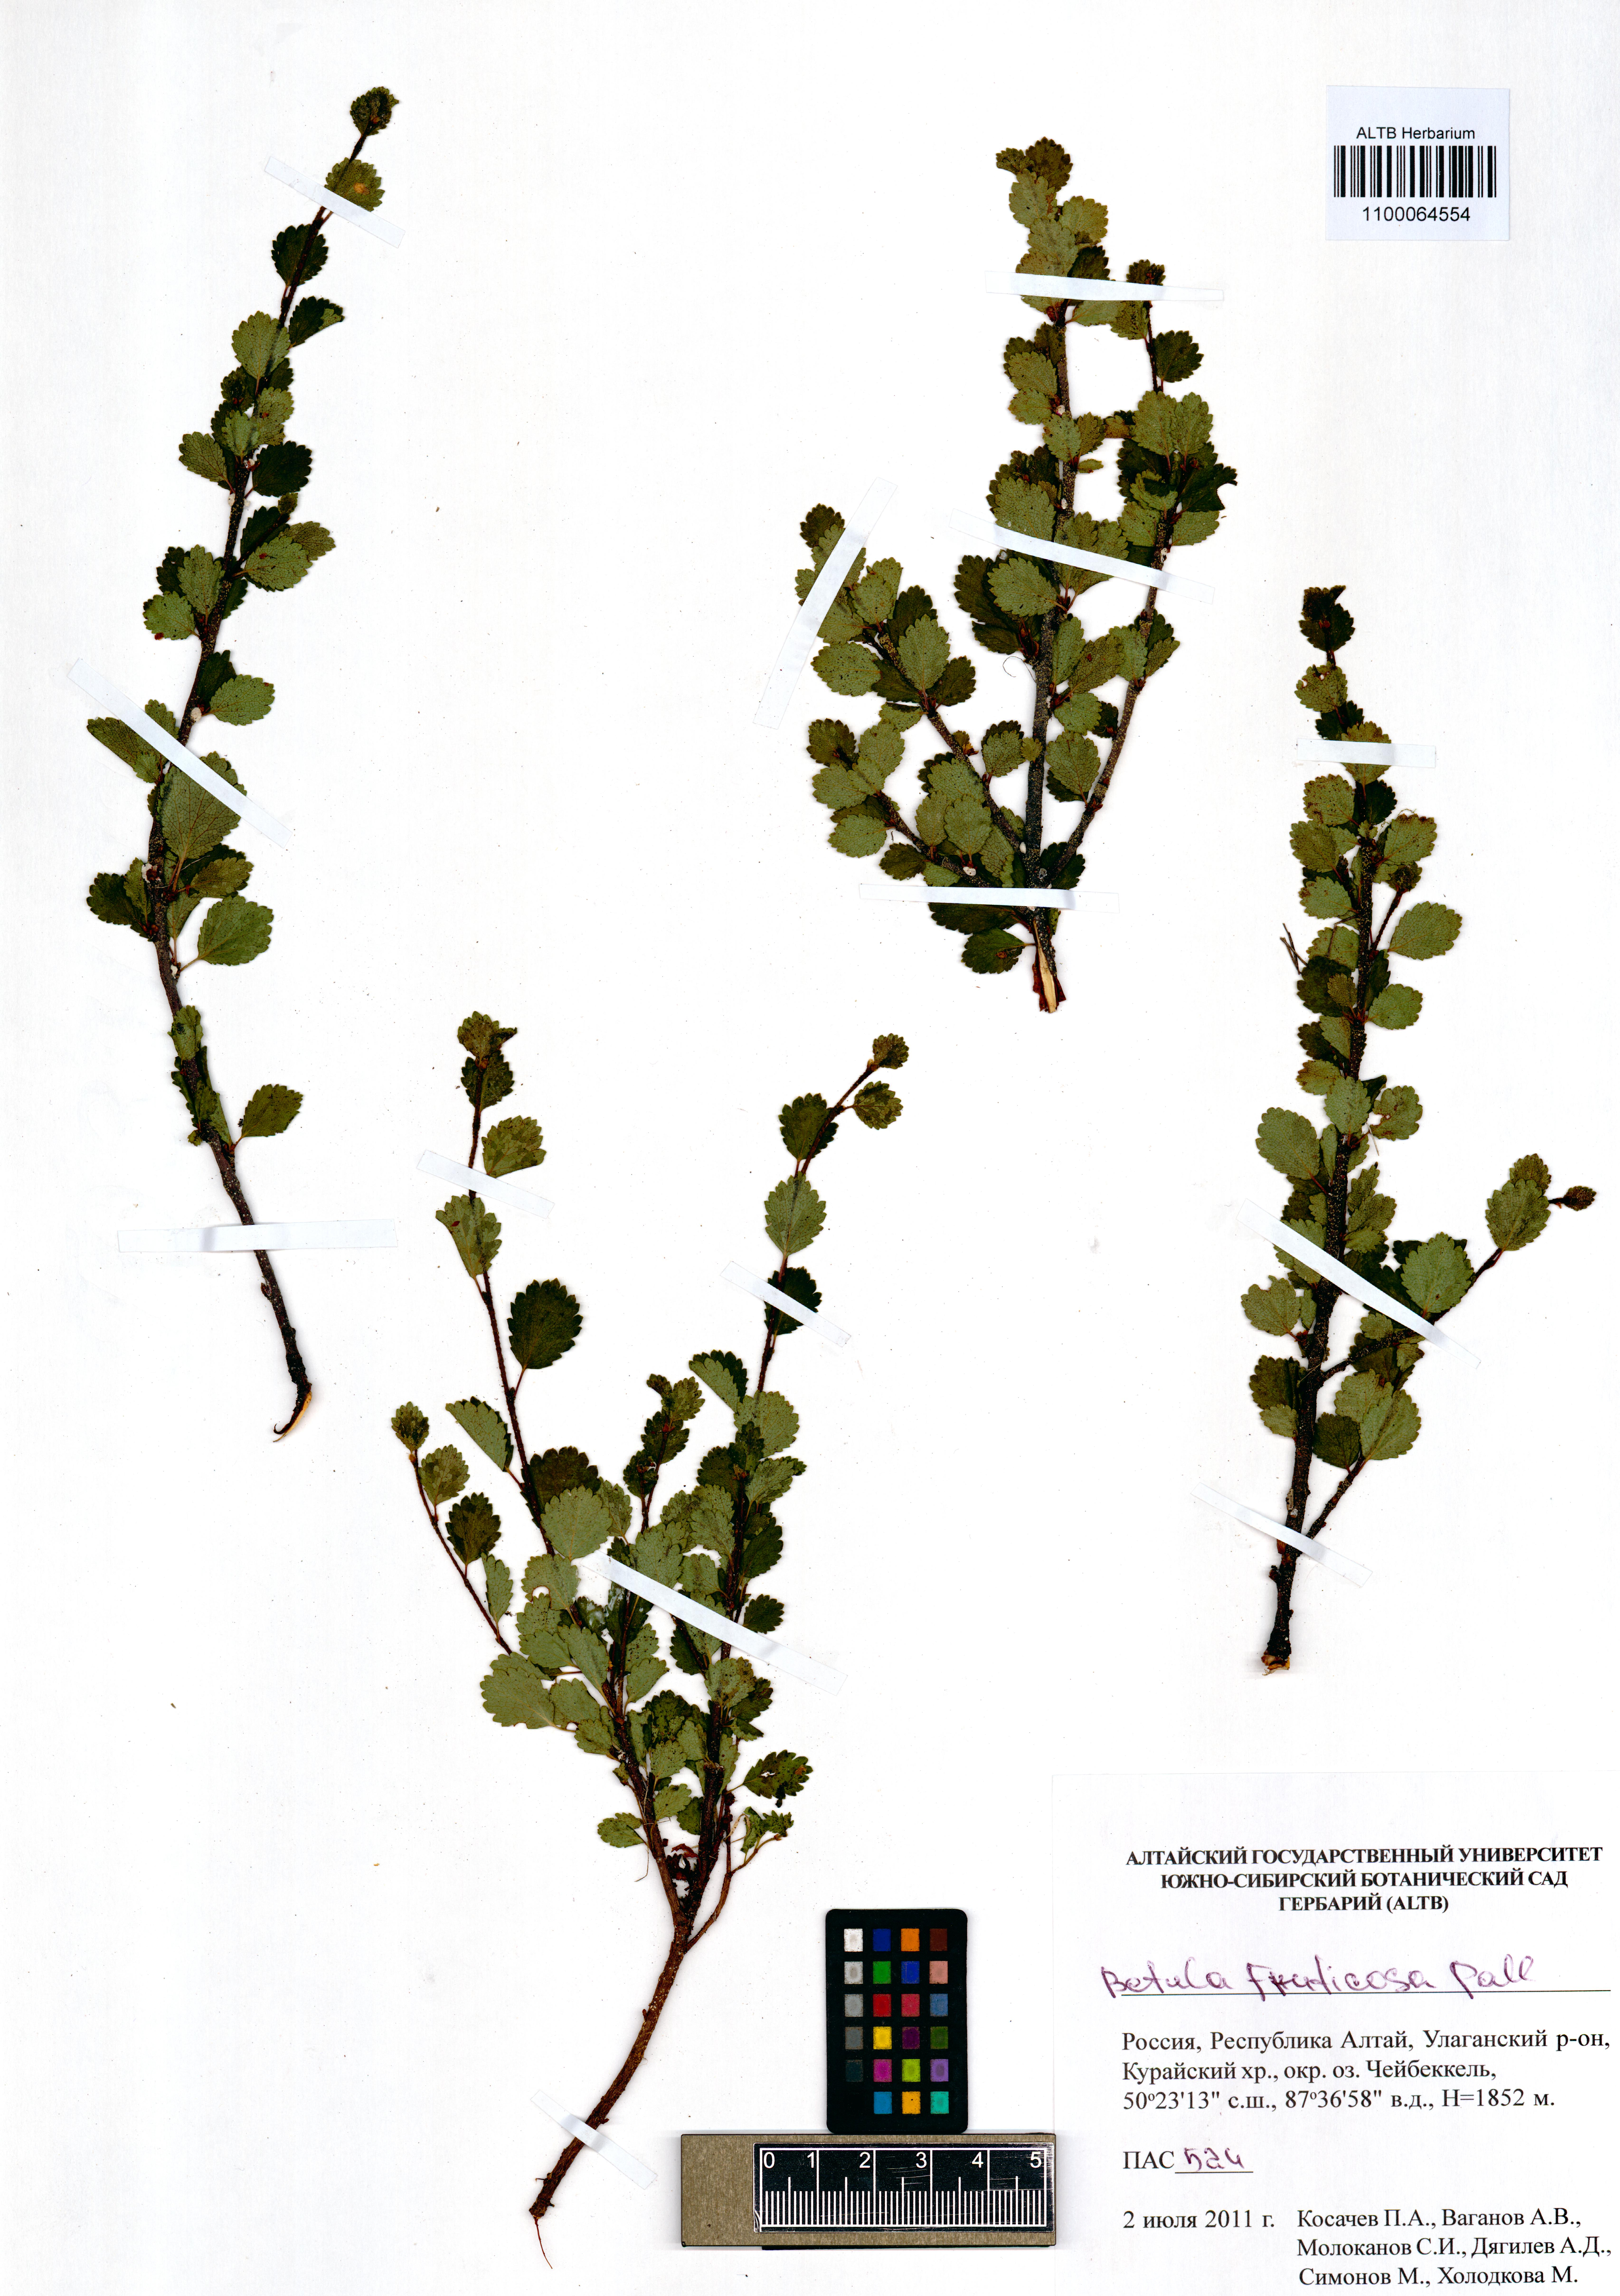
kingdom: Plantae
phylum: Tracheophyta
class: Magnoliopsida
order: Fagales
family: Betulaceae
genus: Betula
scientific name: Betula fruticosa
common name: Japanese bog birch
